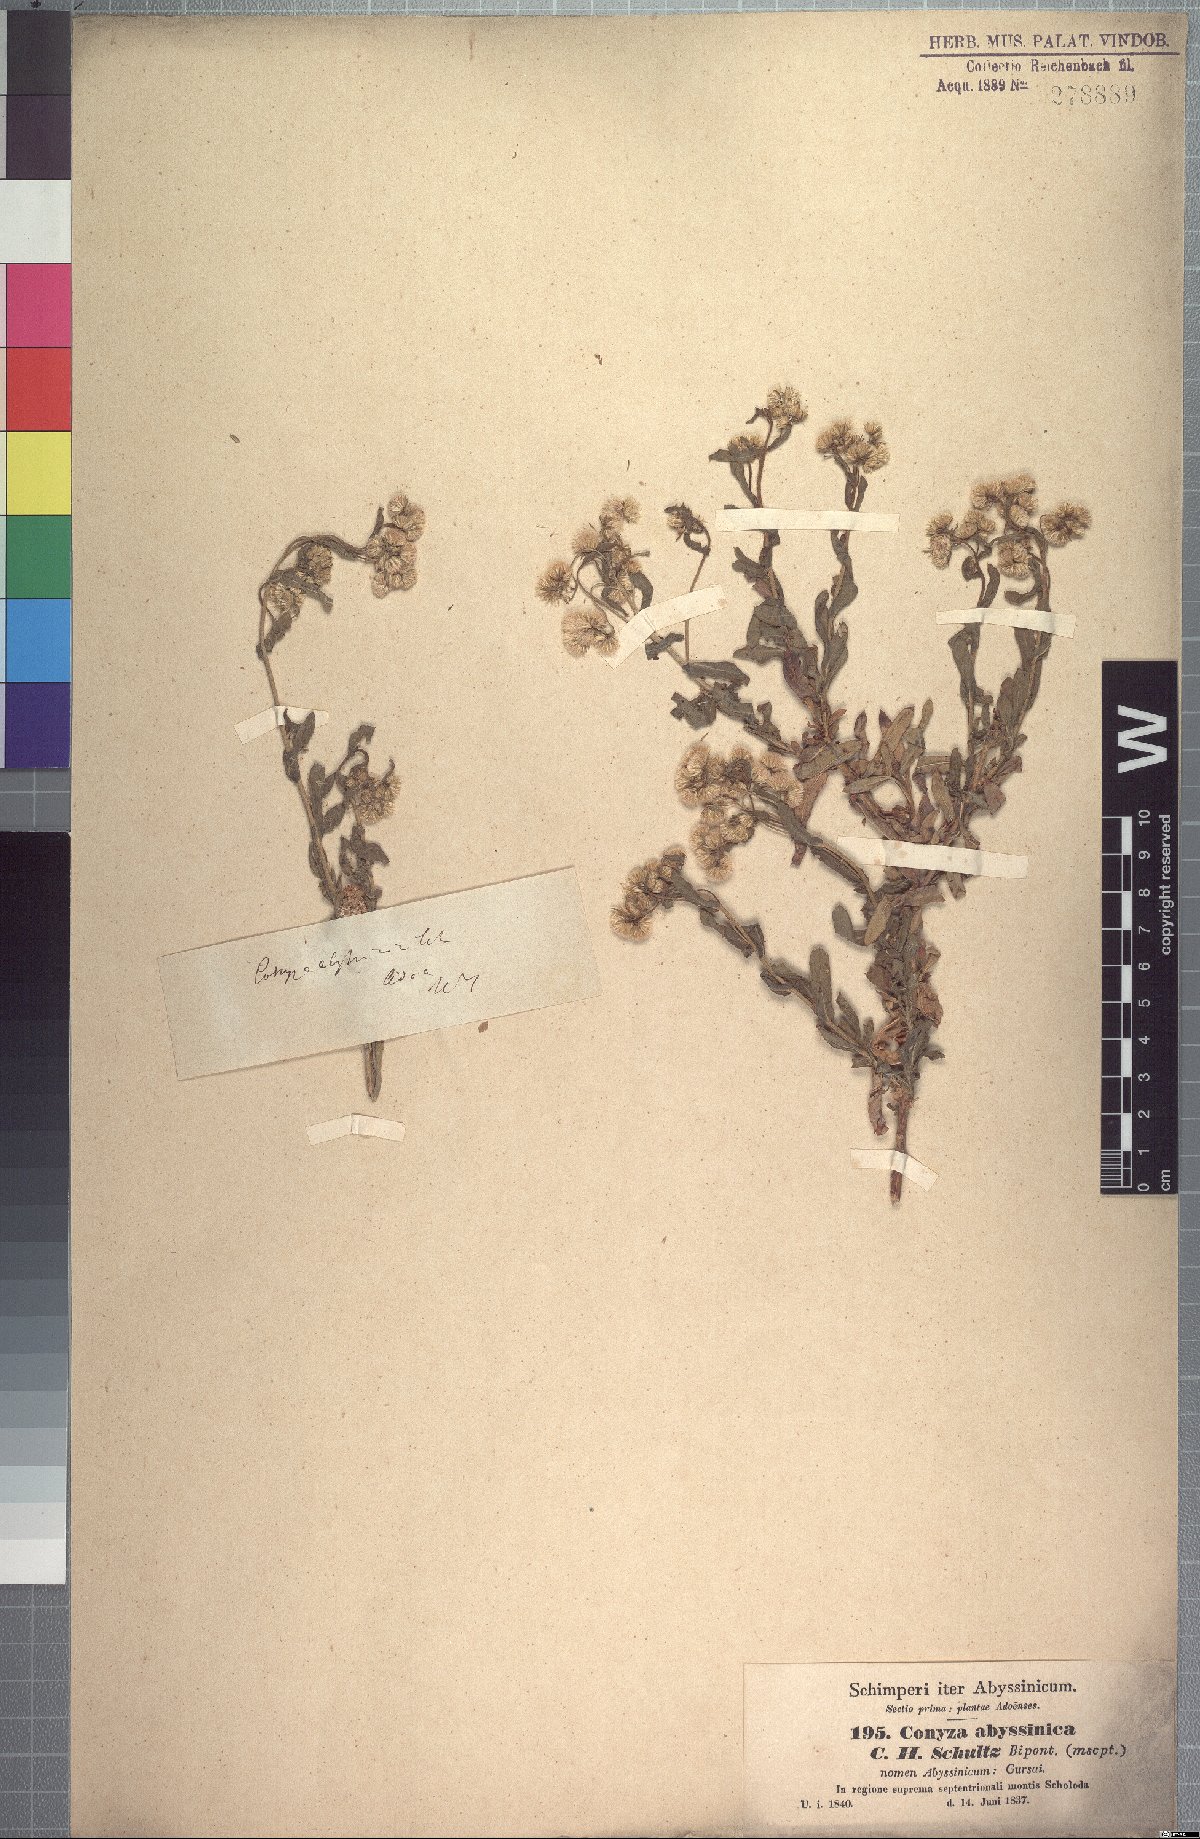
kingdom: Plantae
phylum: Tracheophyta
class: Magnoliopsida
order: Asterales
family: Asteraceae
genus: Conyza
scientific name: Conyza abyssinica
